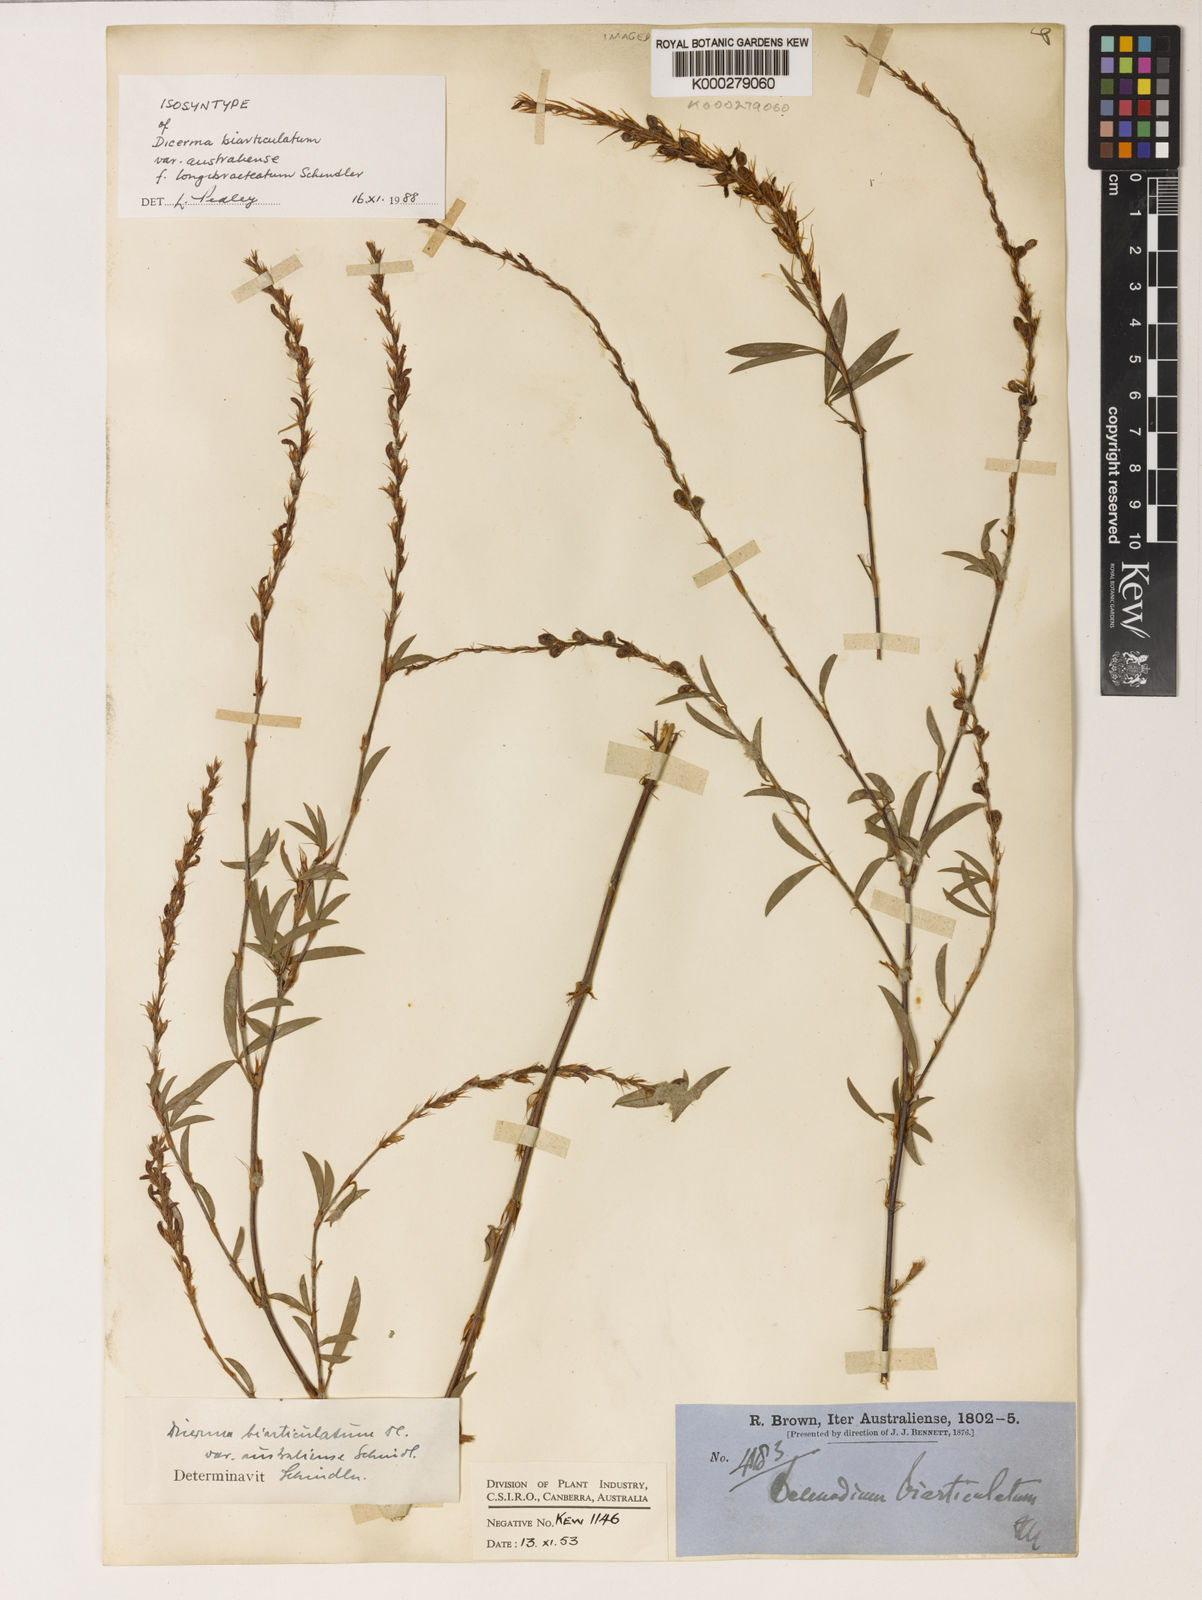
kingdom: Plantae
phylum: Tracheophyta
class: Magnoliopsida
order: Fabales
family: Fabaceae
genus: Aphyllodium
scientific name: Aphyllodium biarticulatum
